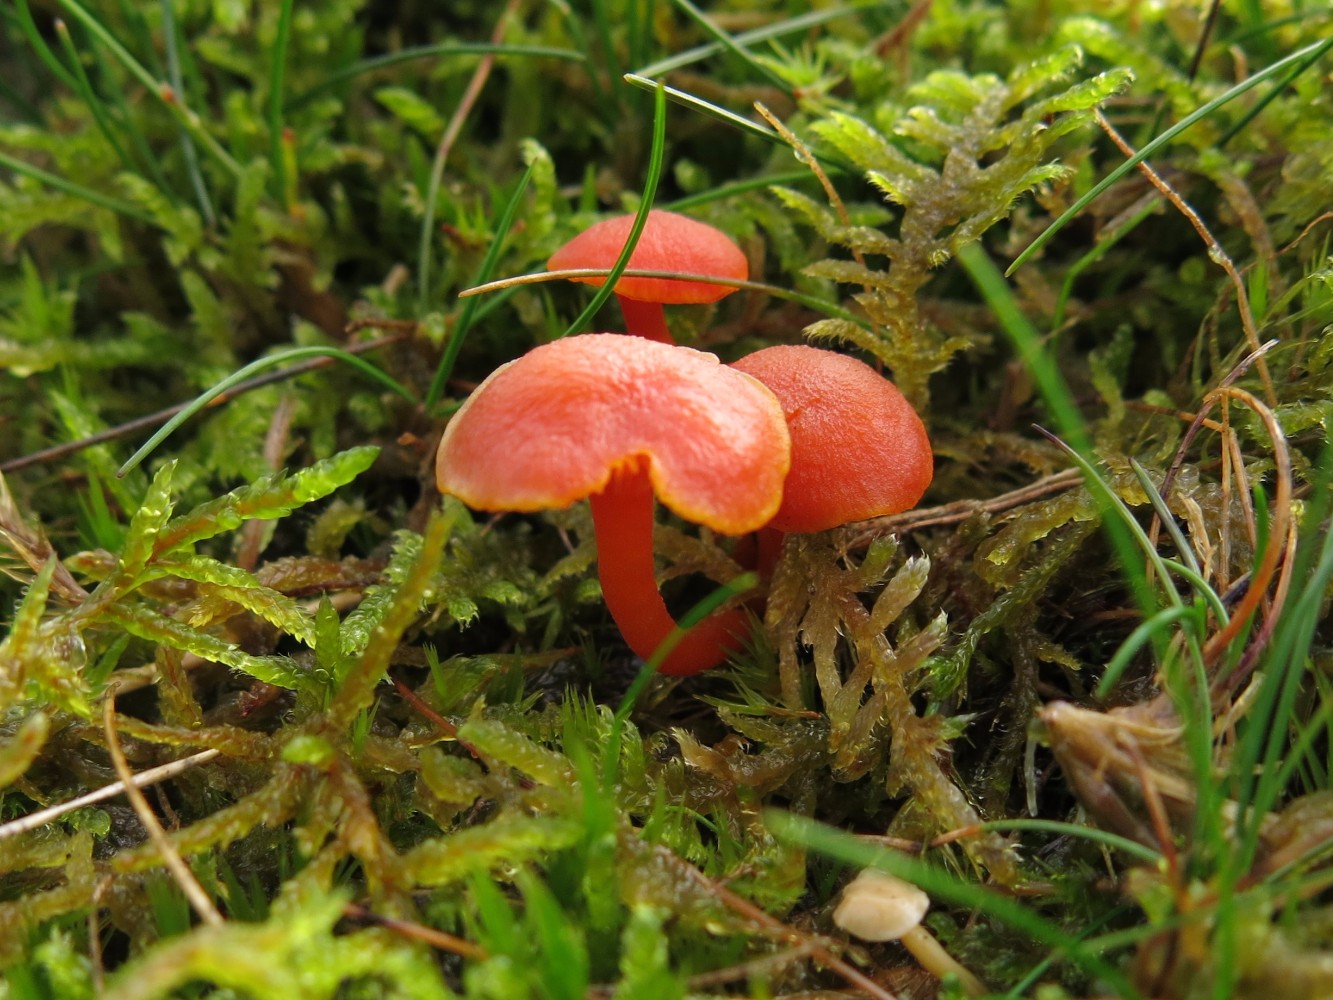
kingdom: Fungi
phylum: Basidiomycota
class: Agaricomycetes
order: Agaricales
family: Hygrophoraceae
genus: Hygrocybe
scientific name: Hygrocybe miniata
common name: mønje-vokshat
